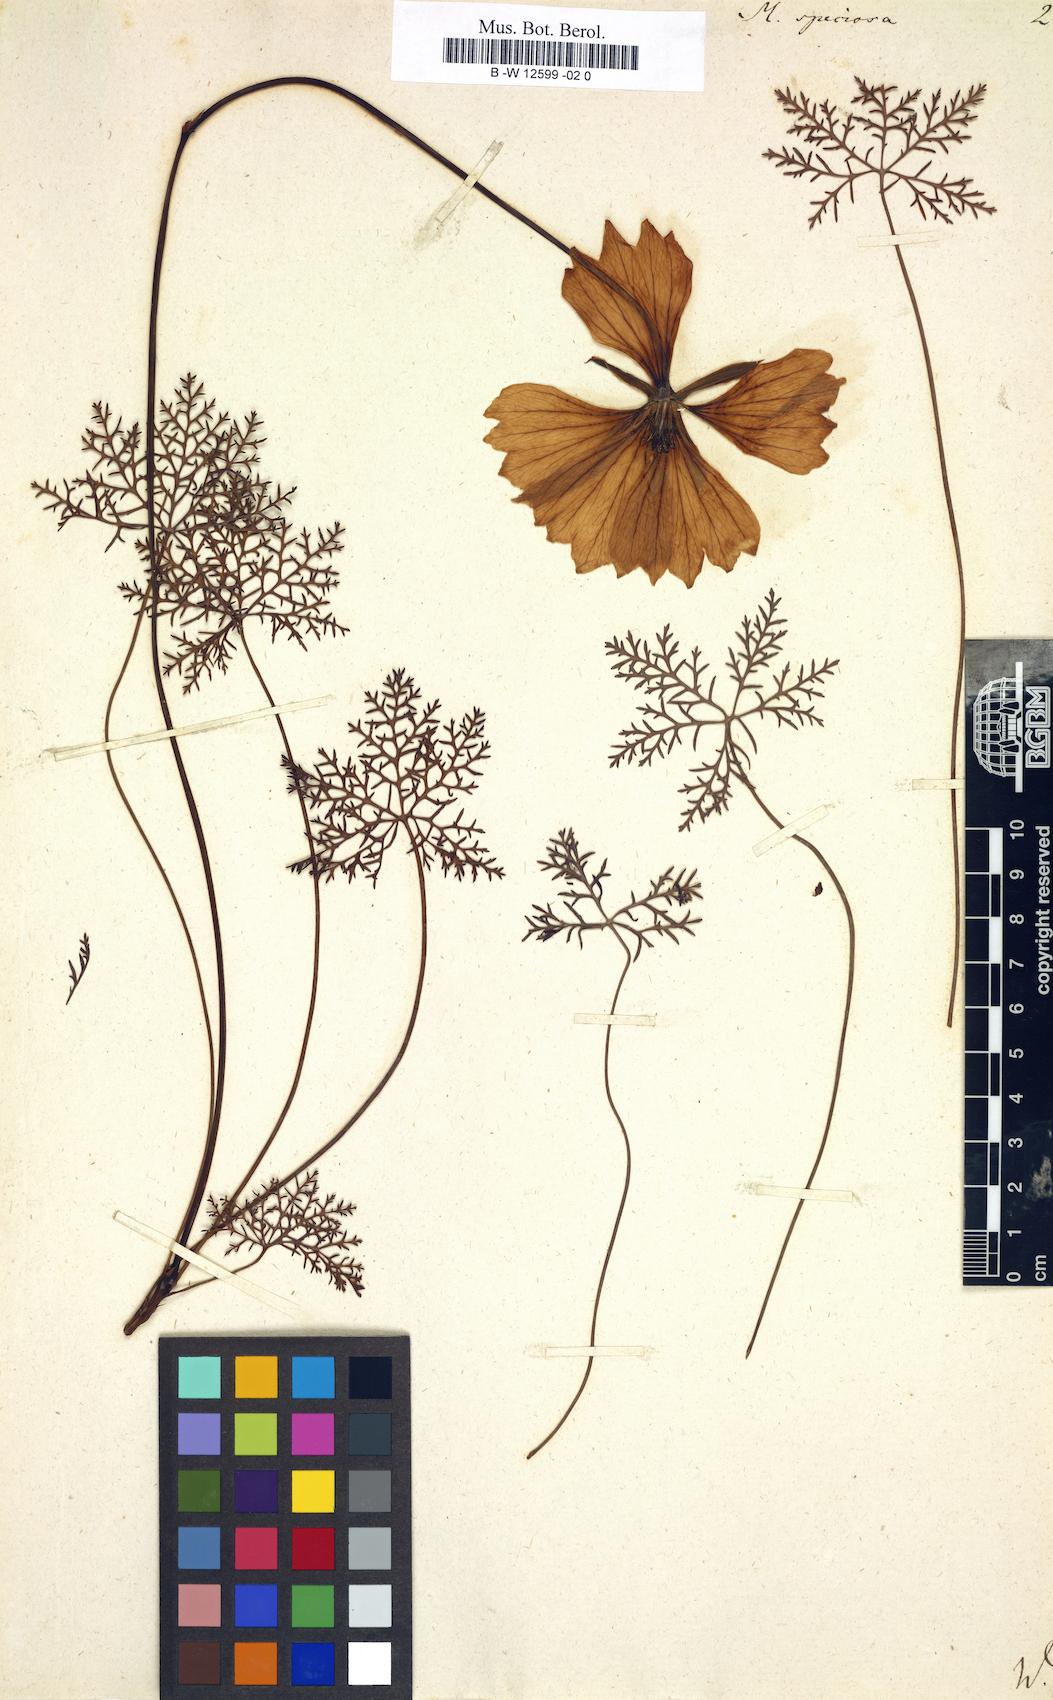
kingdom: Plantae
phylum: Tracheophyta
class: Magnoliopsida
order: Geraniales
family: Geraniaceae
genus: Monsonia
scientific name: Monsonia speciosa
